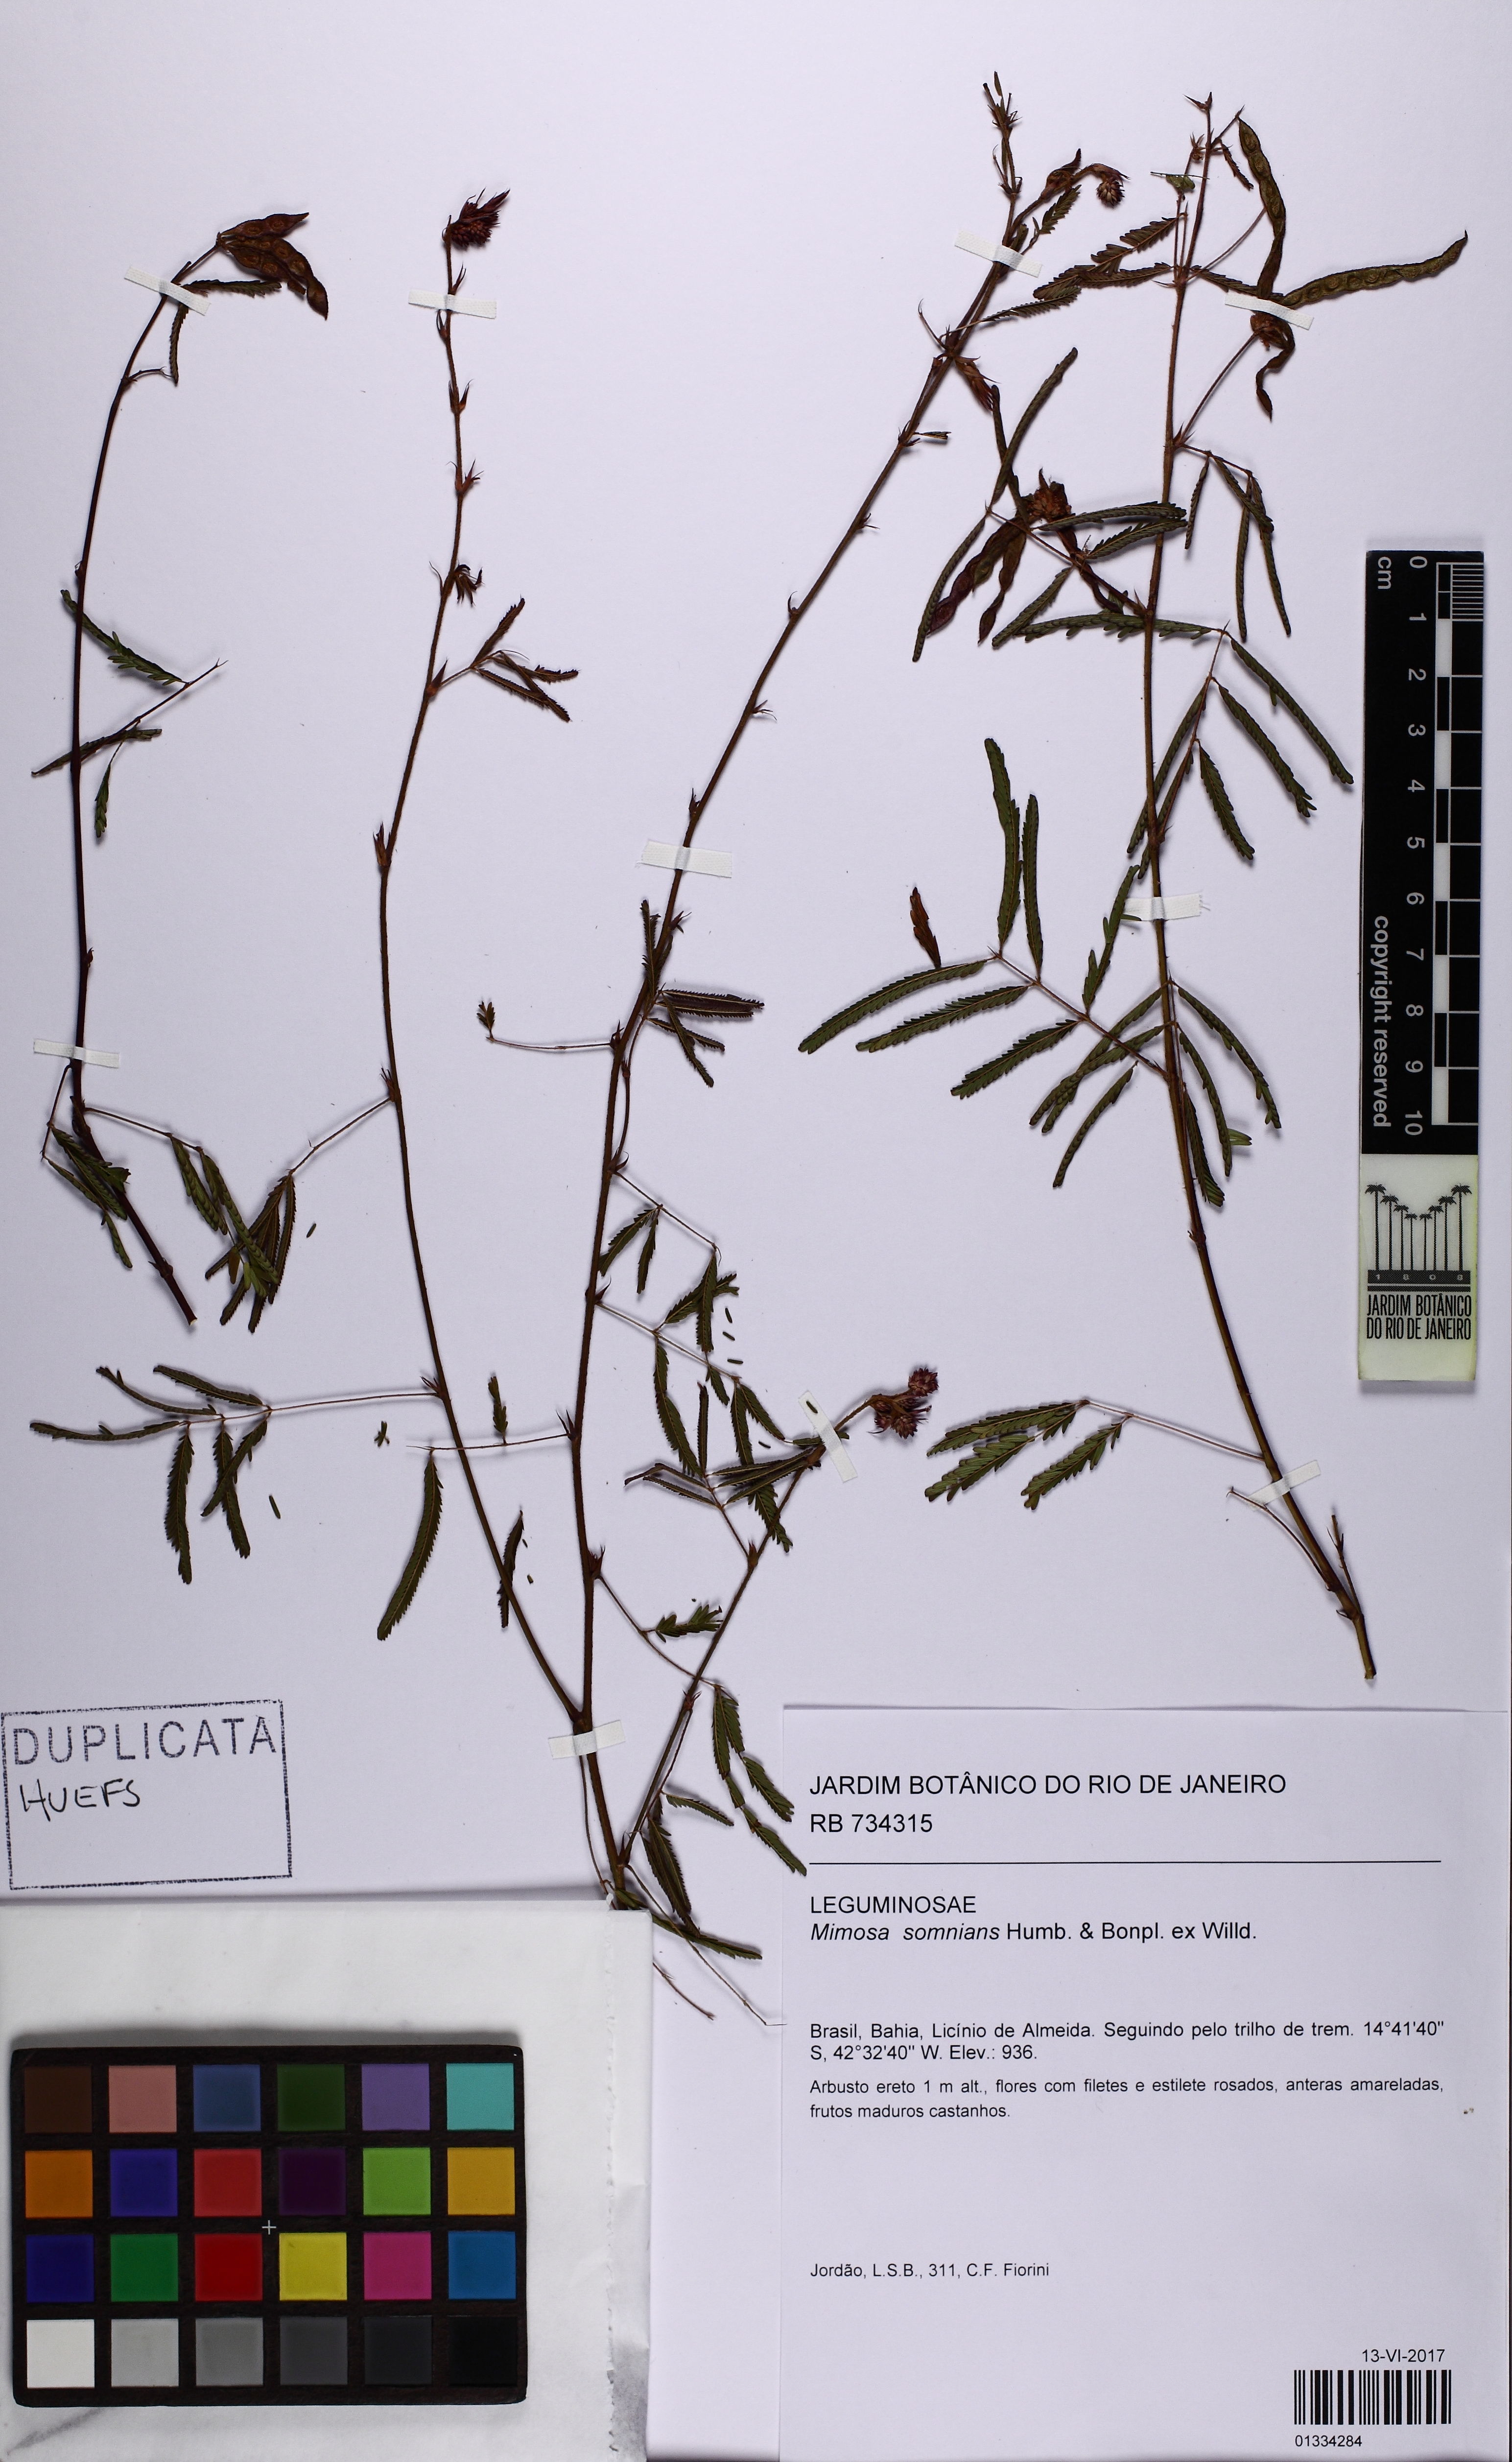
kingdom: Plantae
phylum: Tracheophyta
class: Magnoliopsida
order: Fabales
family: Fabaceae
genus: Mimosa
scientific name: Mimosa somnians
